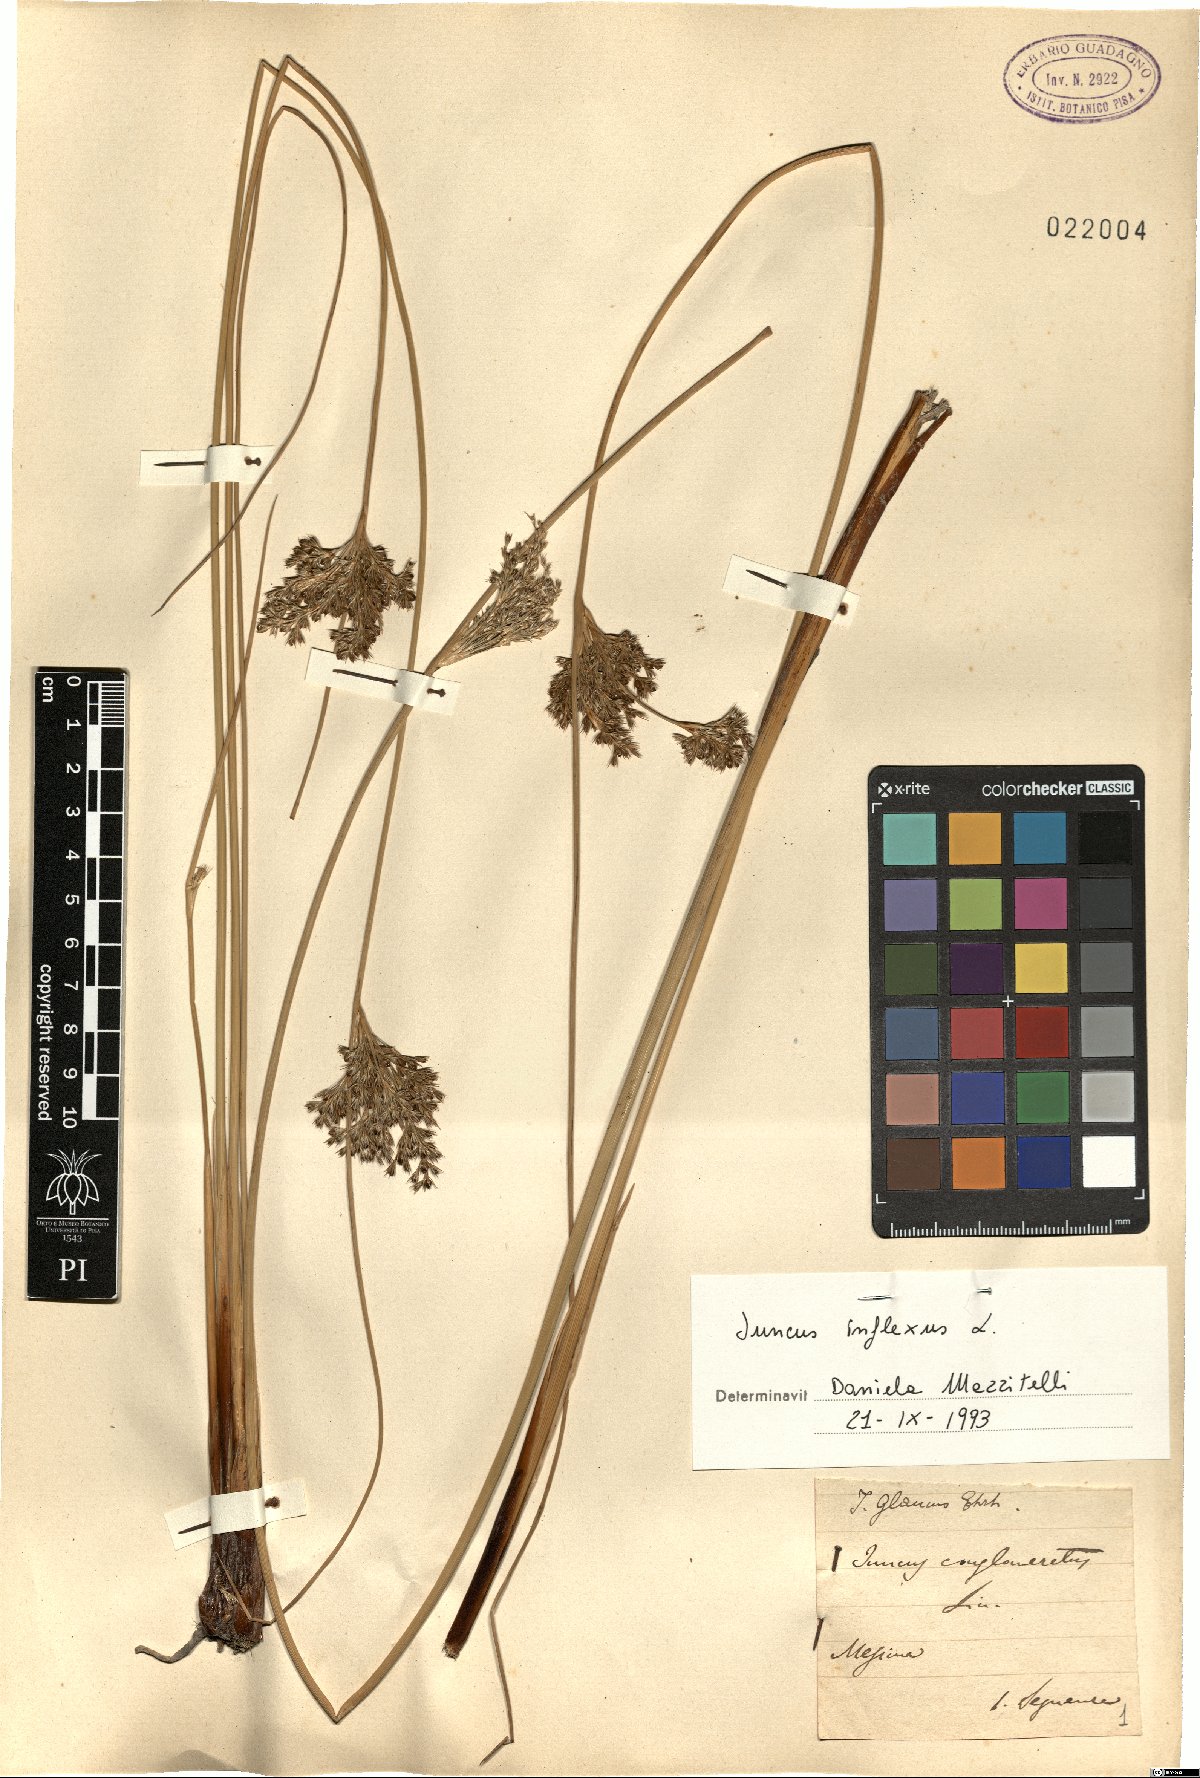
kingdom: Plantae
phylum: Tracheophyta
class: Liliopsida
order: Poales
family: Juncaceae
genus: Juncus
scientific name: Juncus inflexus
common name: Hard rush
